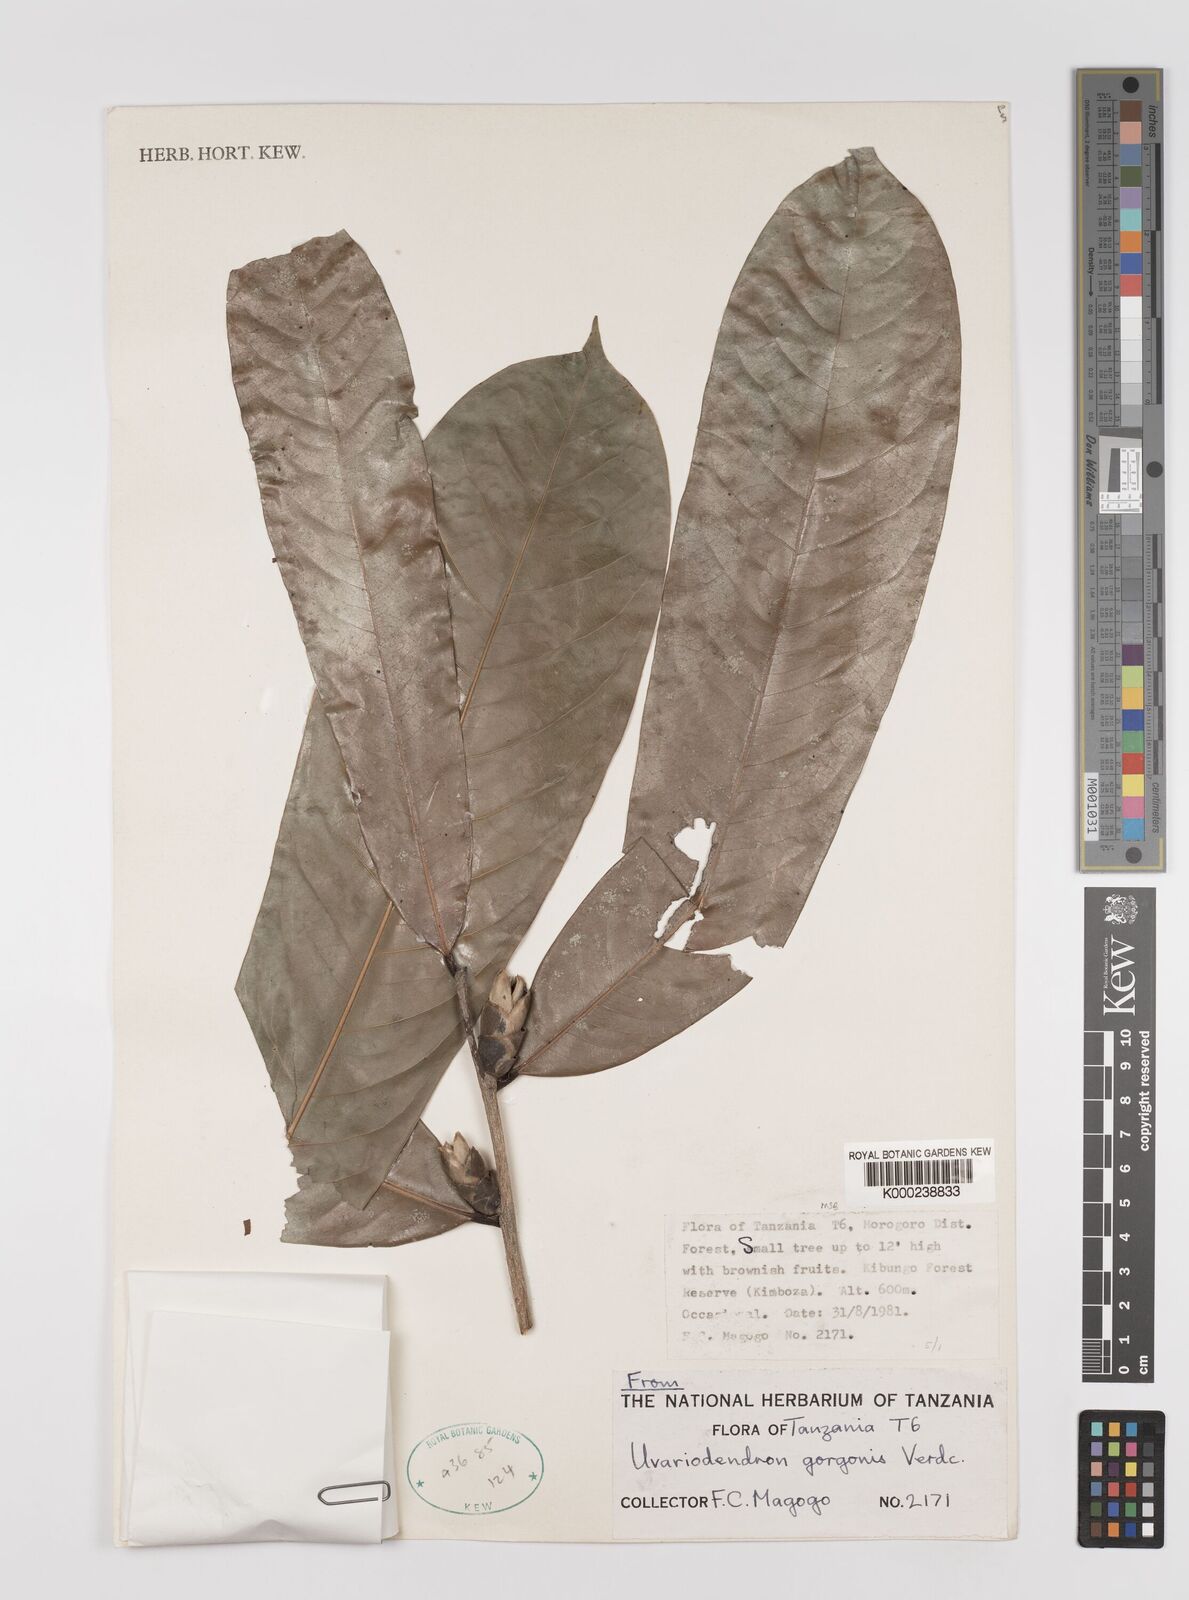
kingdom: Plantae
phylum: Tracheophyta
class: Magnoliopsida
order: Magnoliales
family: Annonaceae
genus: Uvariodendron
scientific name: Uvariodendron gorgonis
